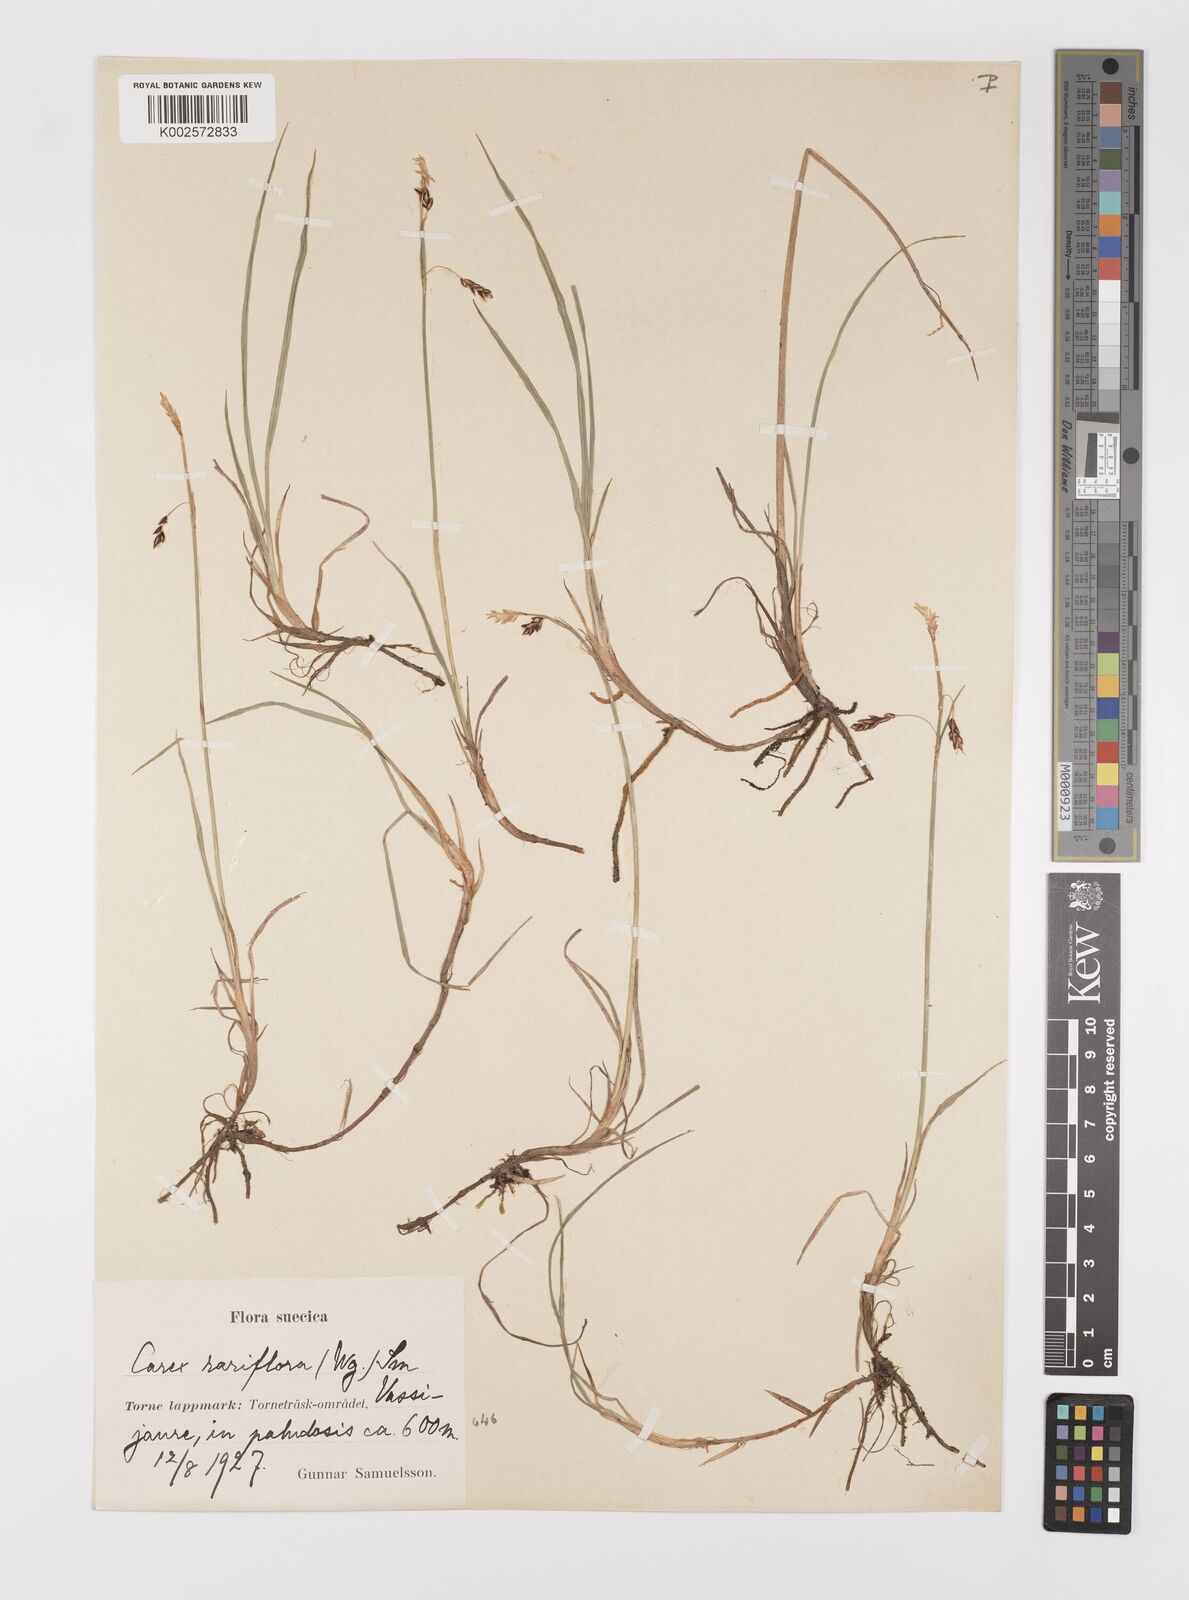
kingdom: Plantae
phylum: Tracheophyta
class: Liliopsida
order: Poales
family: Cyperaceae
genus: Carex
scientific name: Carex rariflora
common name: Loose-flowered alpine sedge
